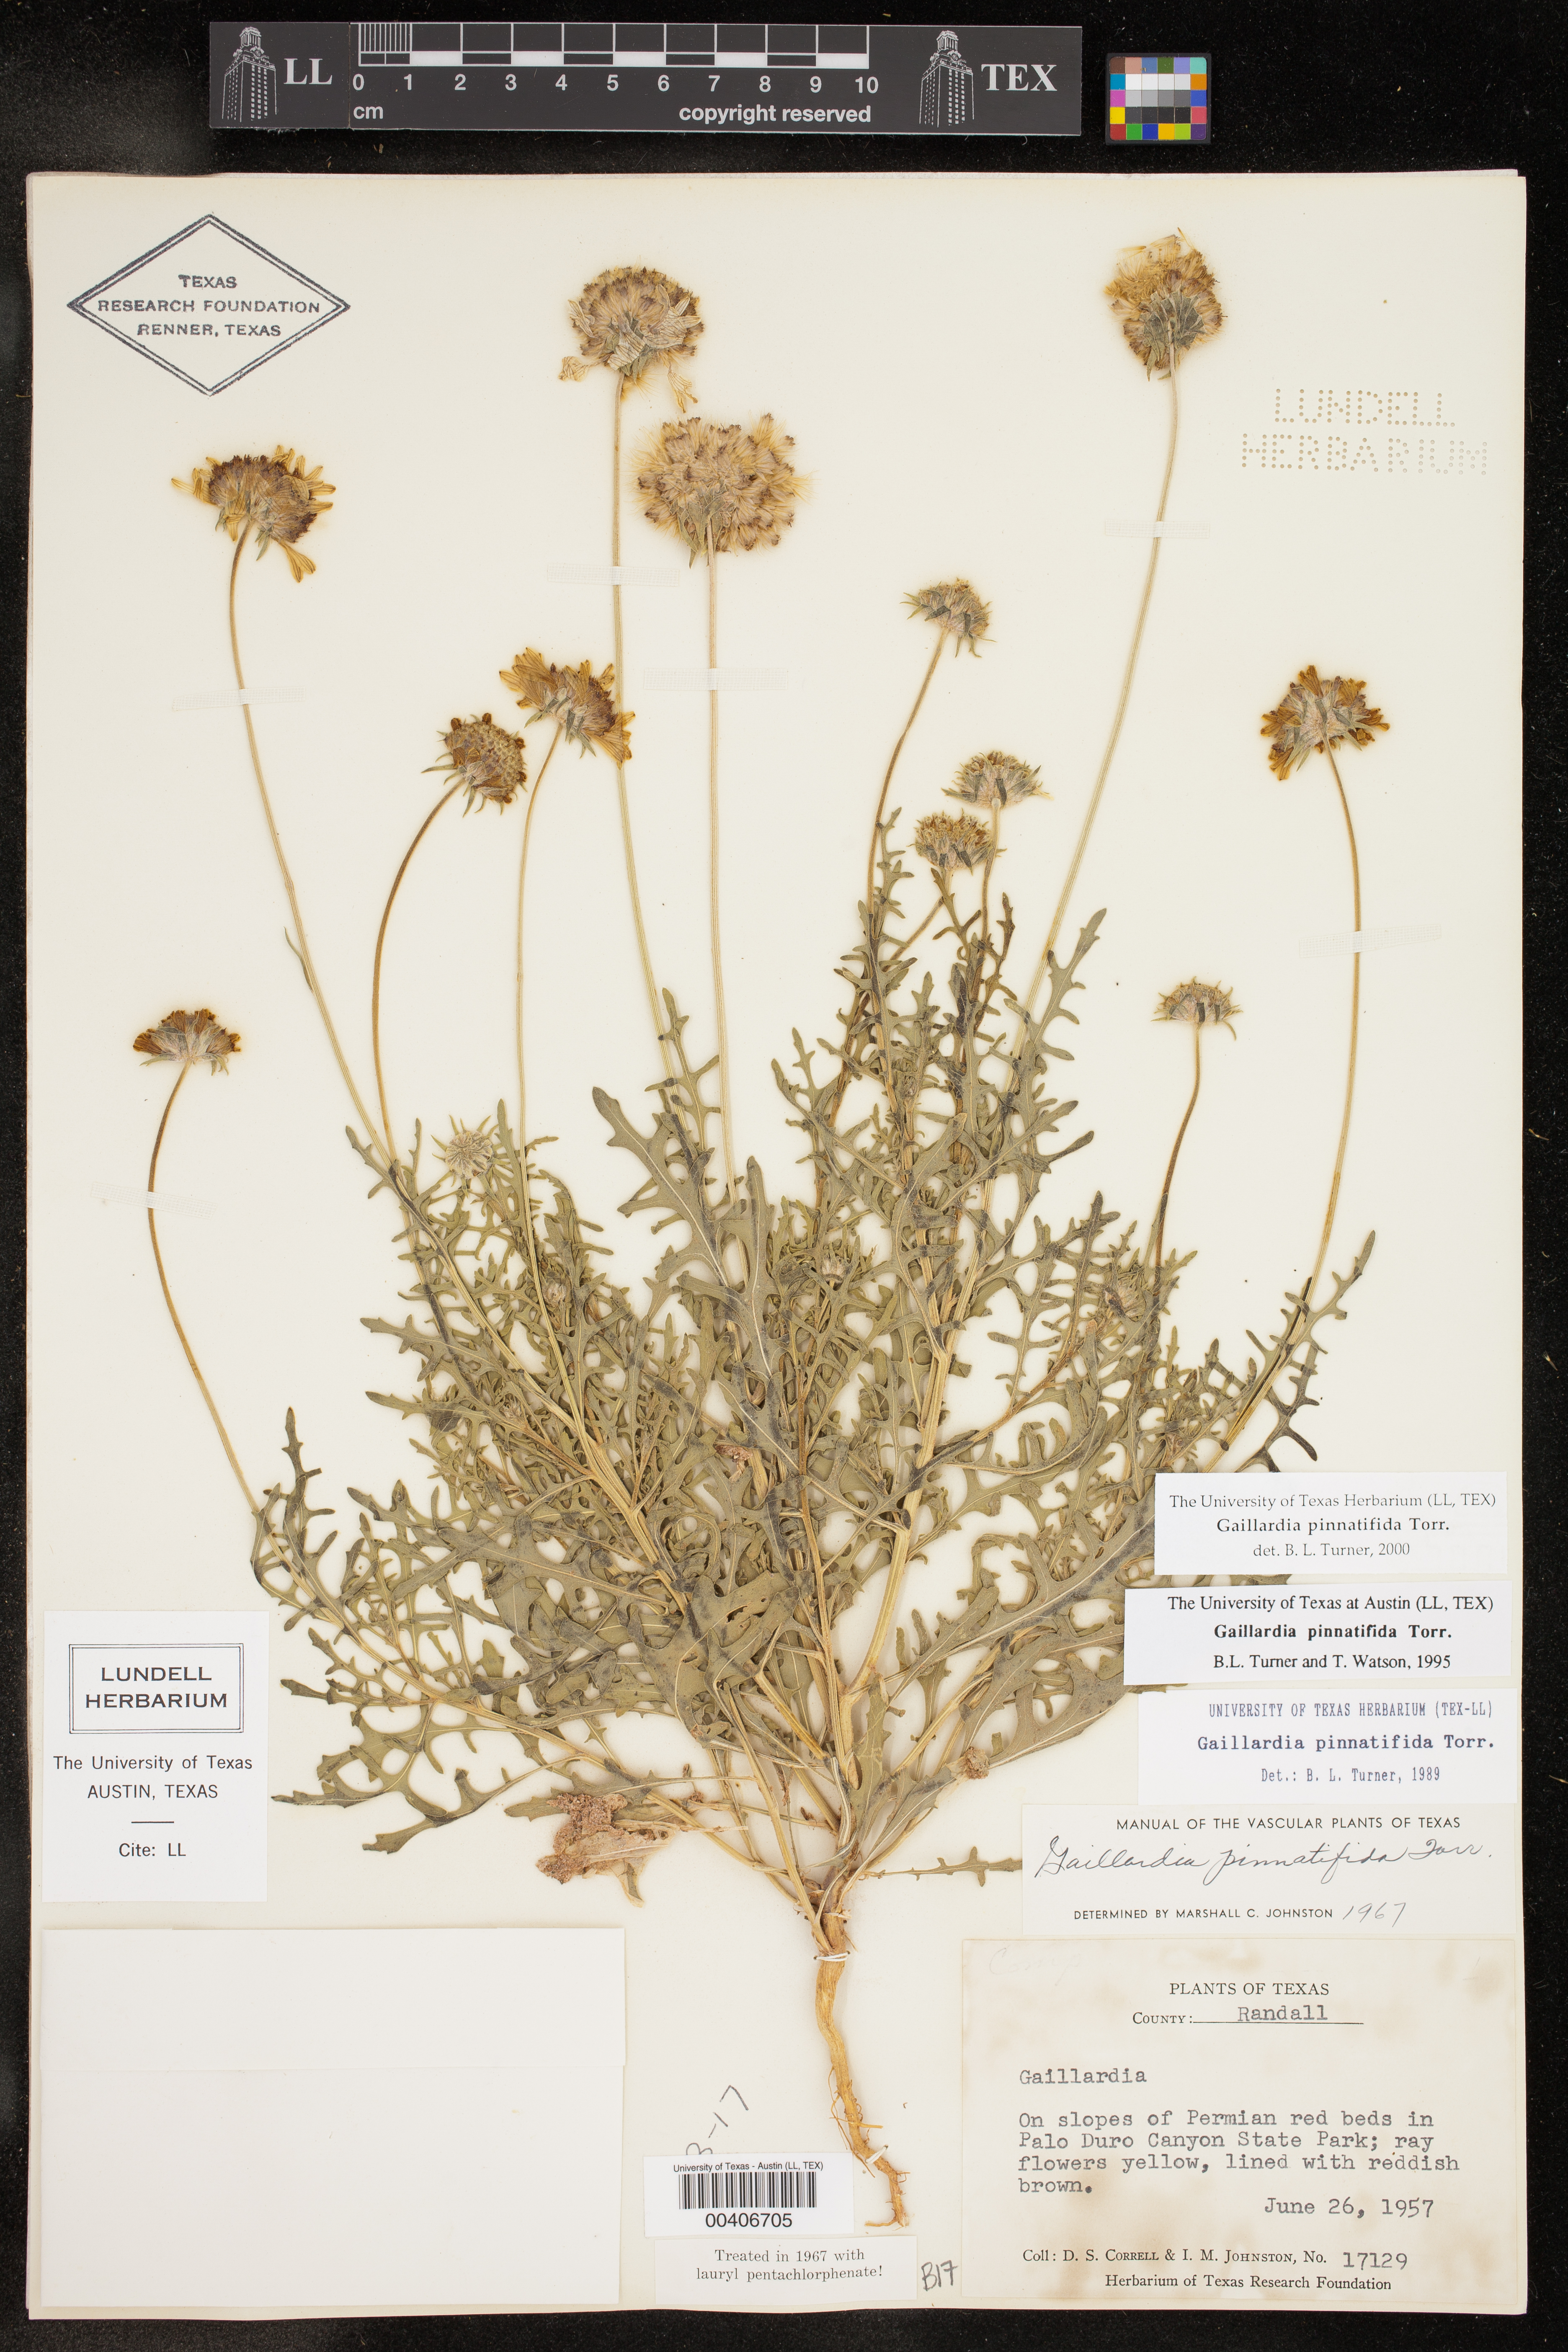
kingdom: Plantae
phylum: Tracheophyta
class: Magnoliopsida
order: Asterales
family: Asteraceae
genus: Gaillardia
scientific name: Gaillardia pinnatifida
